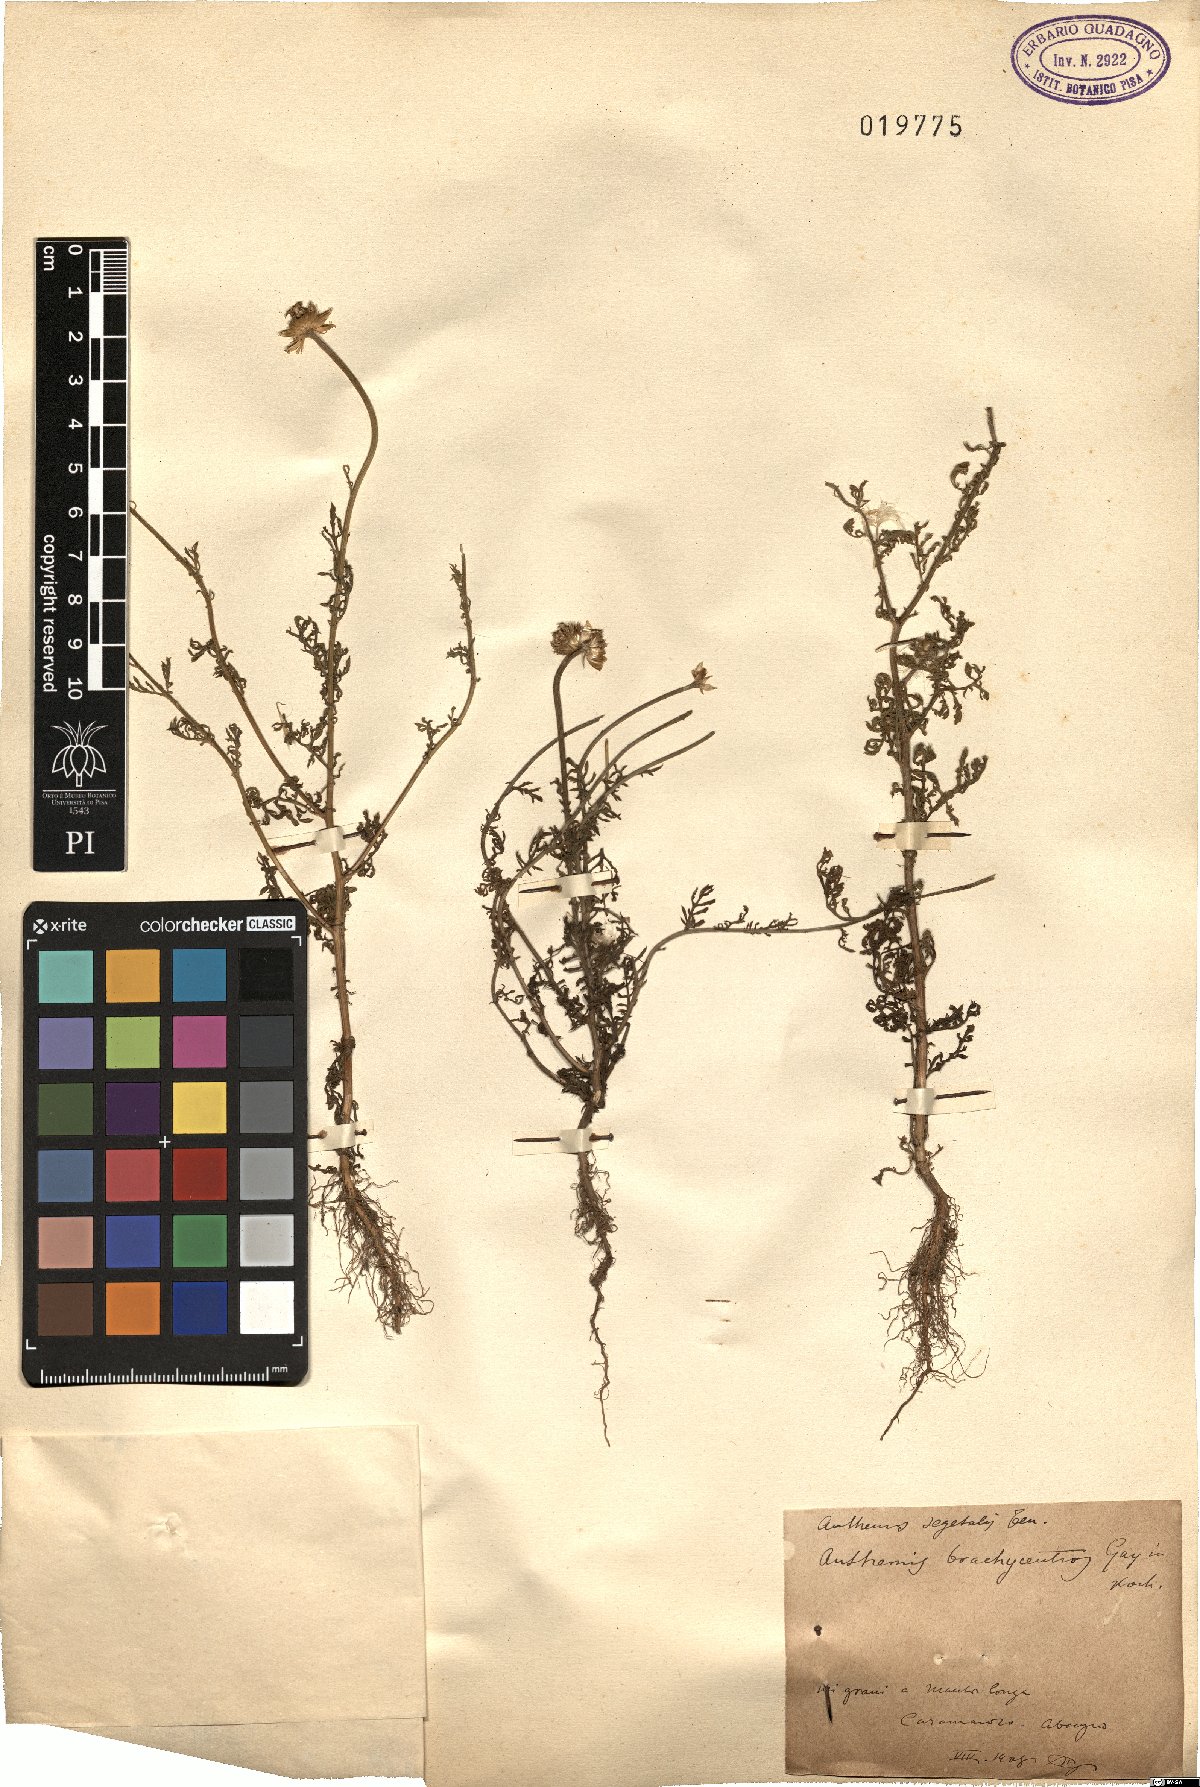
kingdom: Plantae
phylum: Tracheophyta
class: Magnoliopsida
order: Asterales
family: Asteraceae
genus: Cota
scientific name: Cota segetalis
